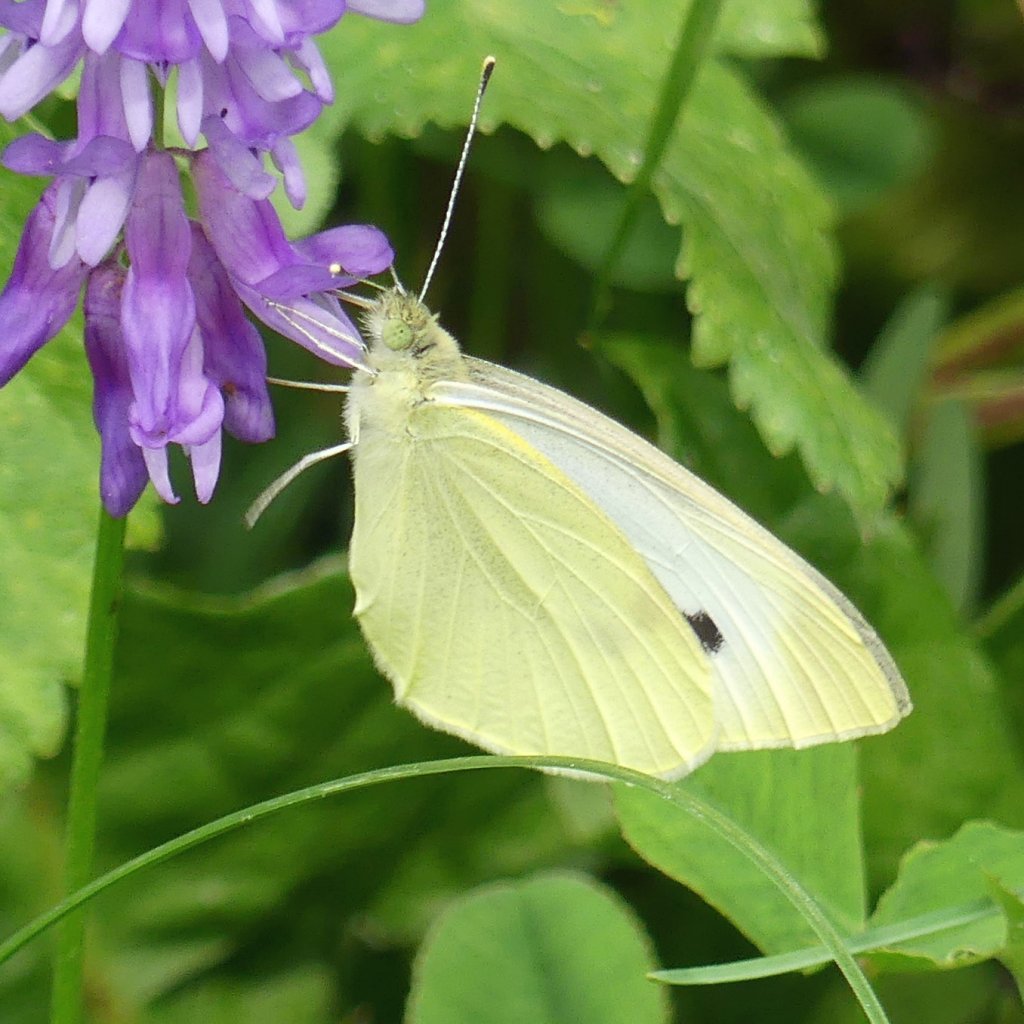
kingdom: Animalia
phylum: Arthropoda
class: Insecta
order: Lepidoptera
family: Pieridae
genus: Pieris
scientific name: Pieris rapae
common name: Cabbage White
